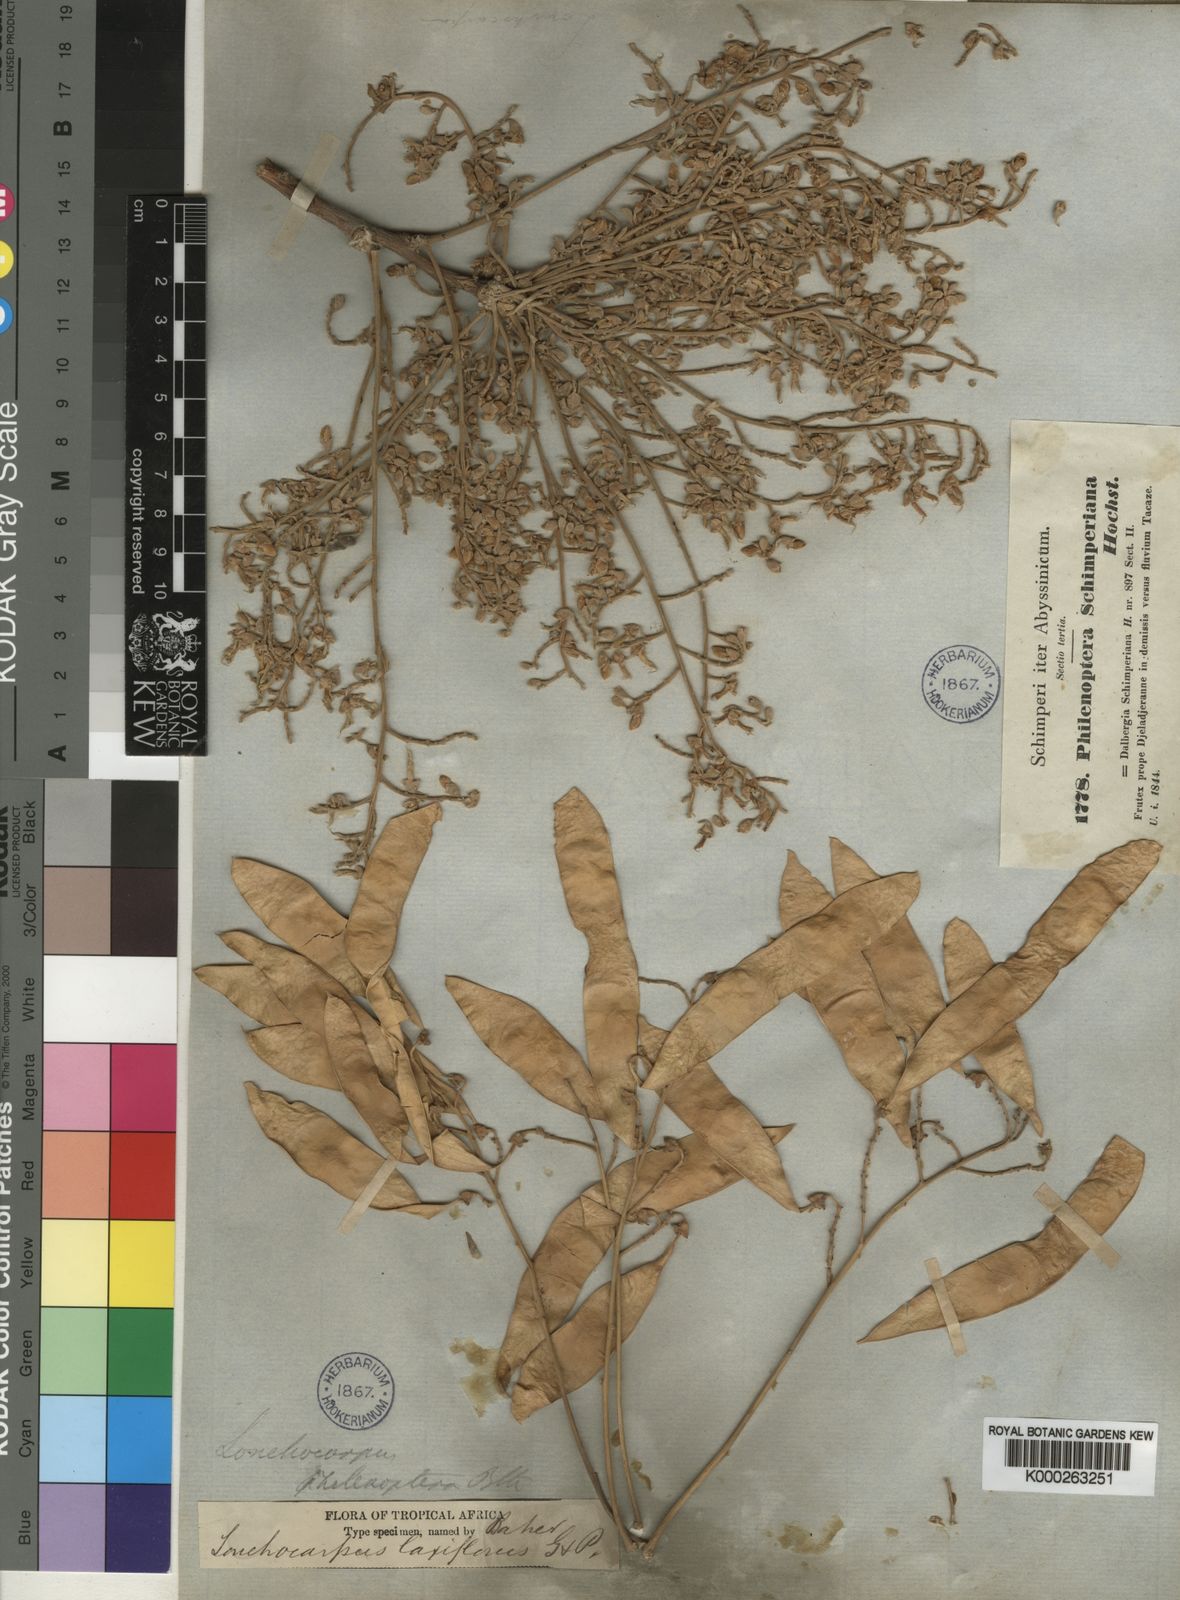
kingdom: Plantae
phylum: Tracheophyta
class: Magnoliopsida
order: Fabales
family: Fabaceae
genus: Philenoptera
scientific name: Philenoptera laxiflora
